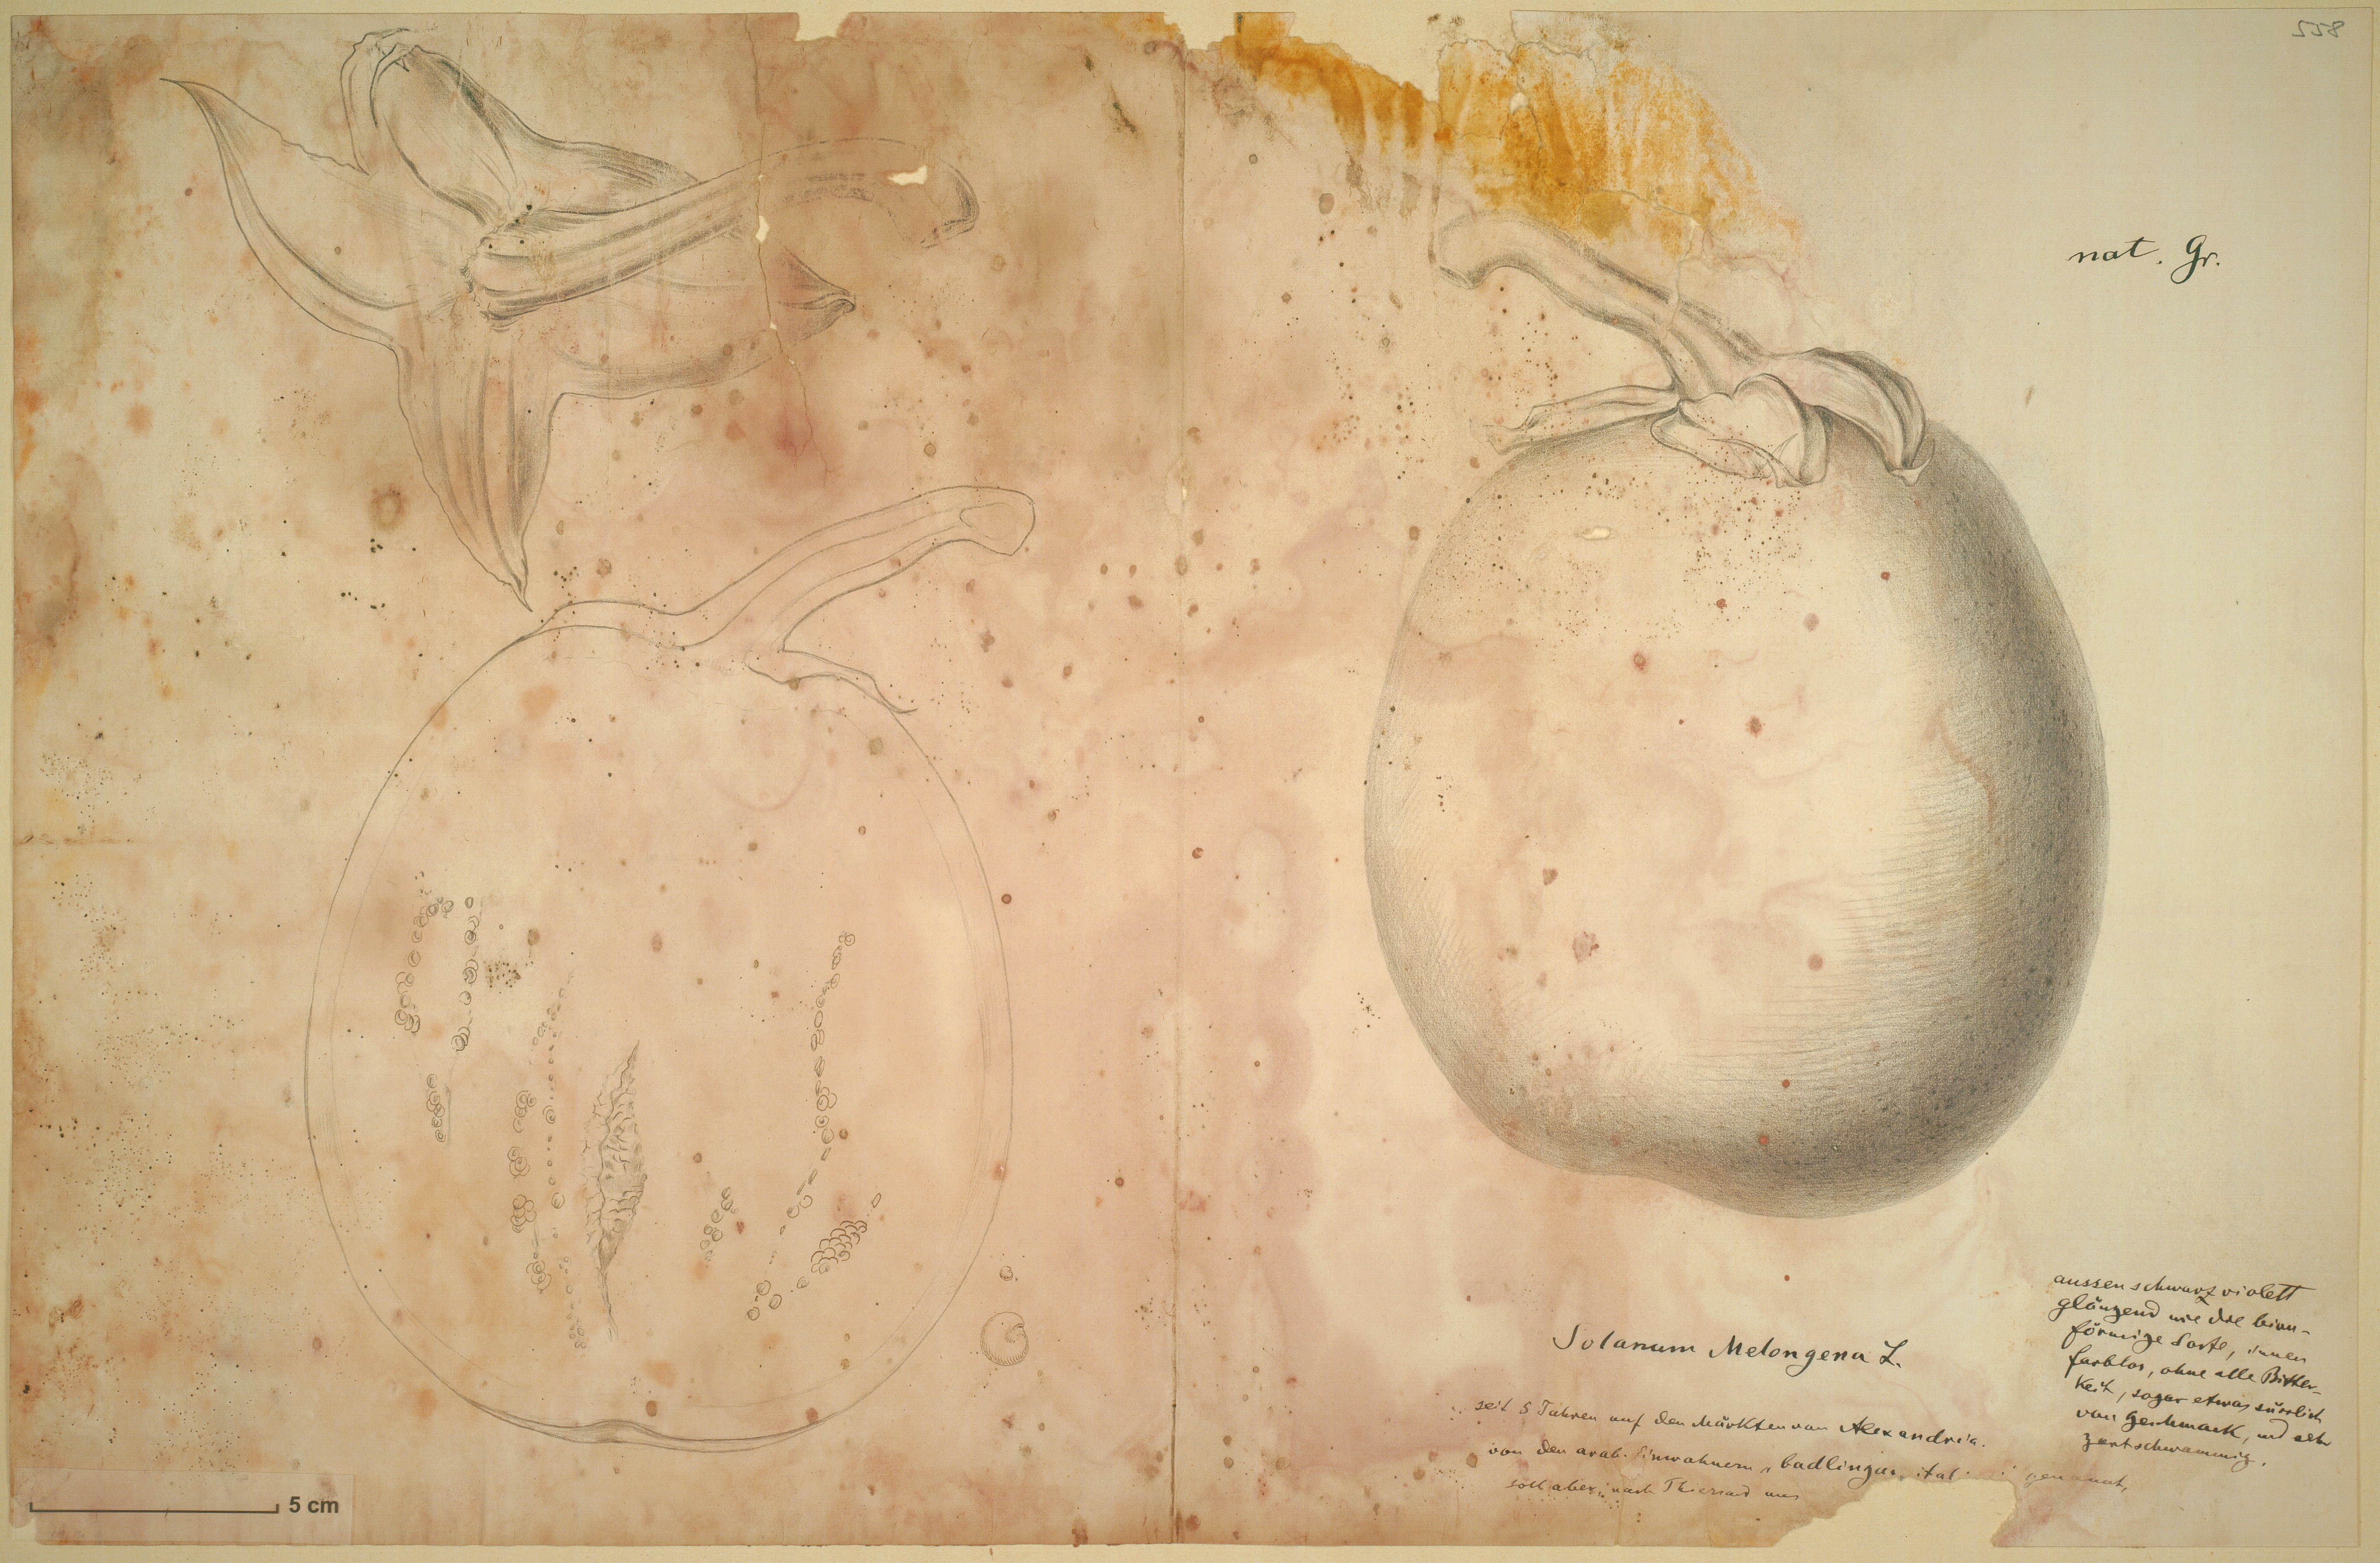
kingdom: Plantae
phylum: Tracheophyta
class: Magnoliopsida
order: Solanales
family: Solanaceae
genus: Solanum
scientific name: Solanum melongena
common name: Eggplant
